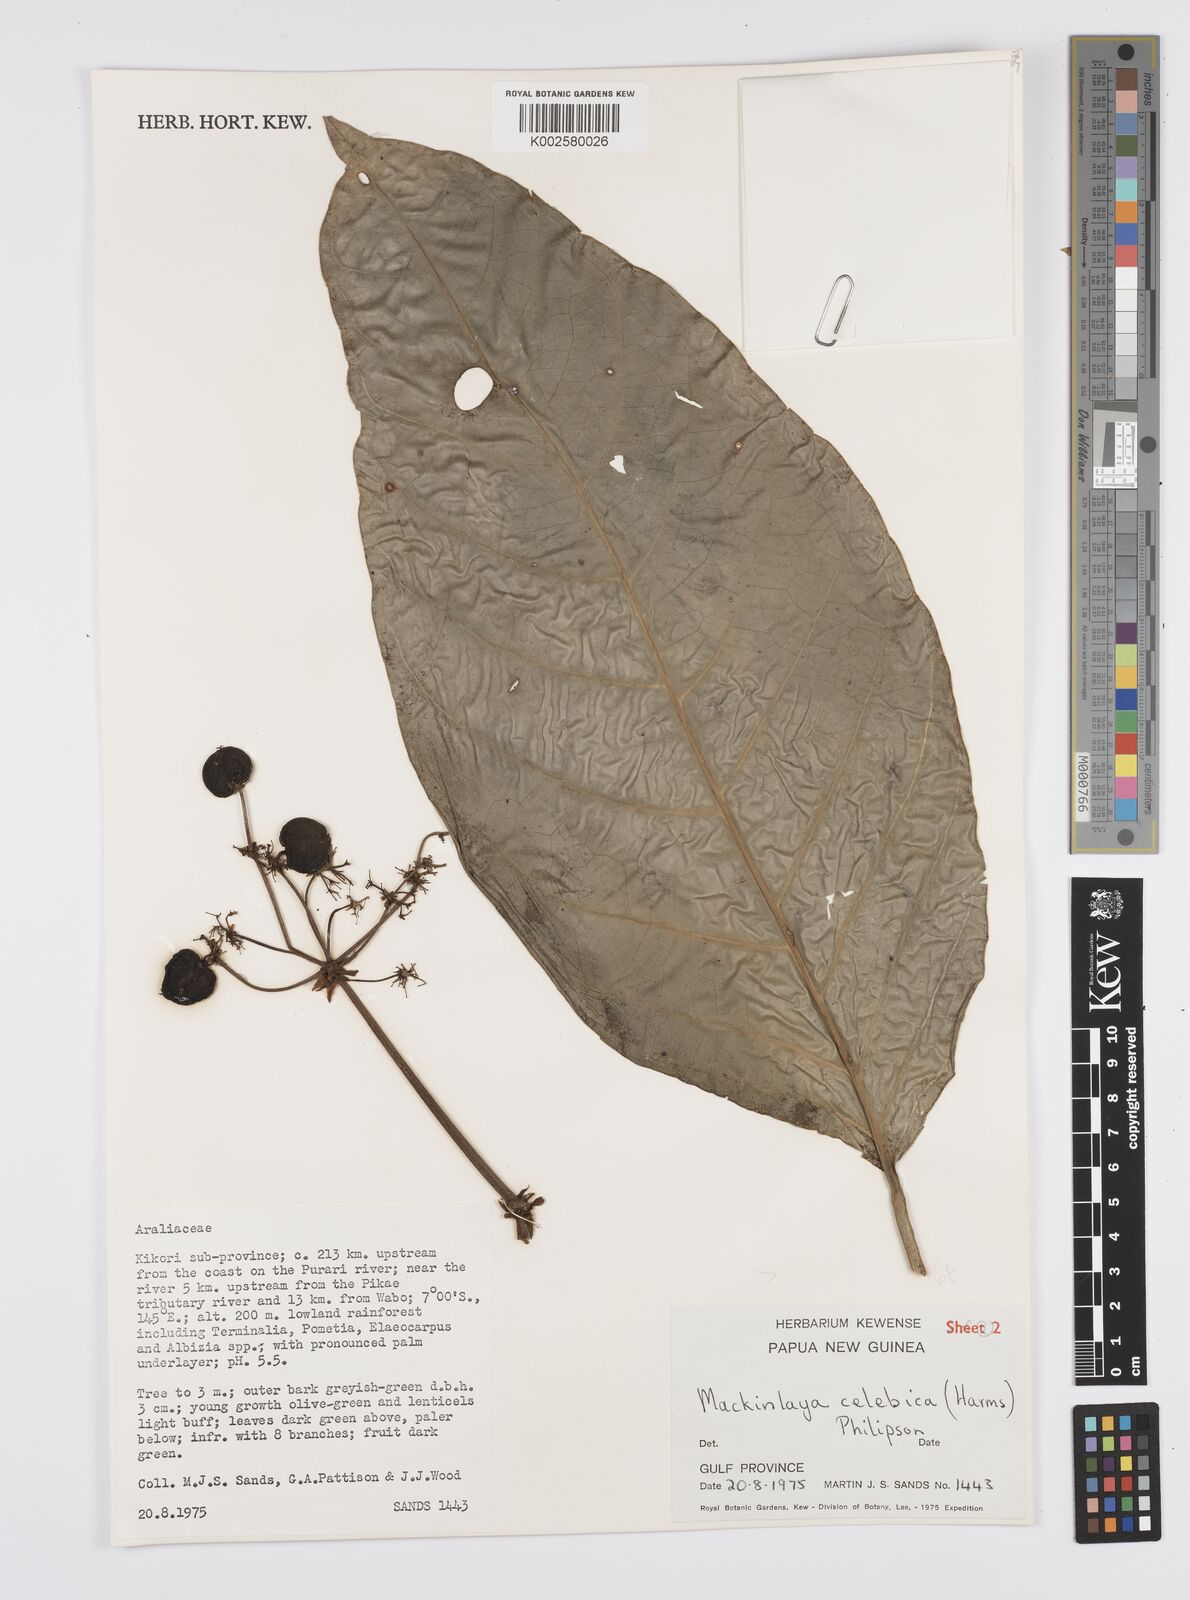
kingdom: Plantae
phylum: Tracheophyta
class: Magnoliopsida
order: Apiales
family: Apiaceae
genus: Mackinlaya
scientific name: Mackinlaya celebica
